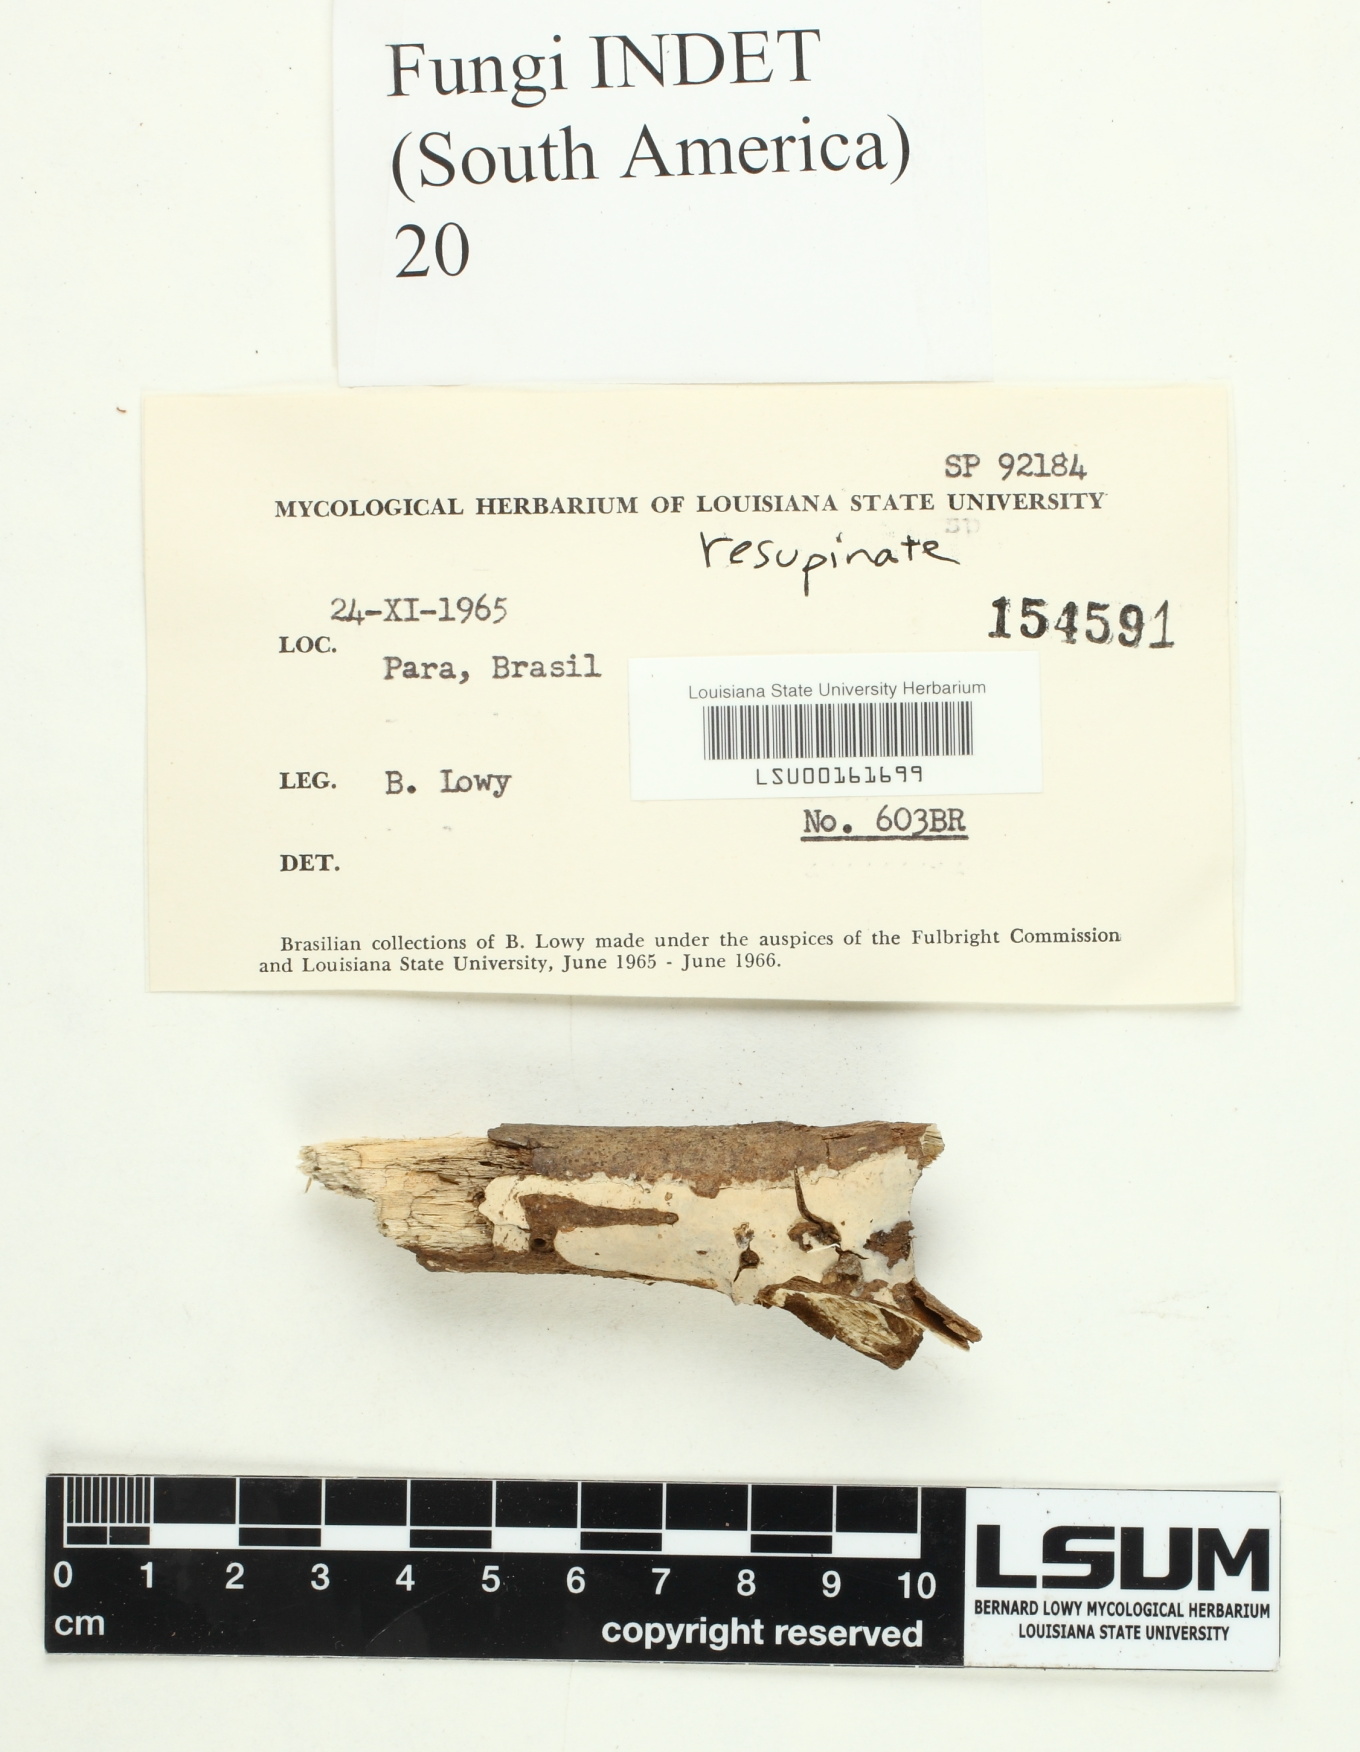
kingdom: Fungi
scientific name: Fungi
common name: Fungi
